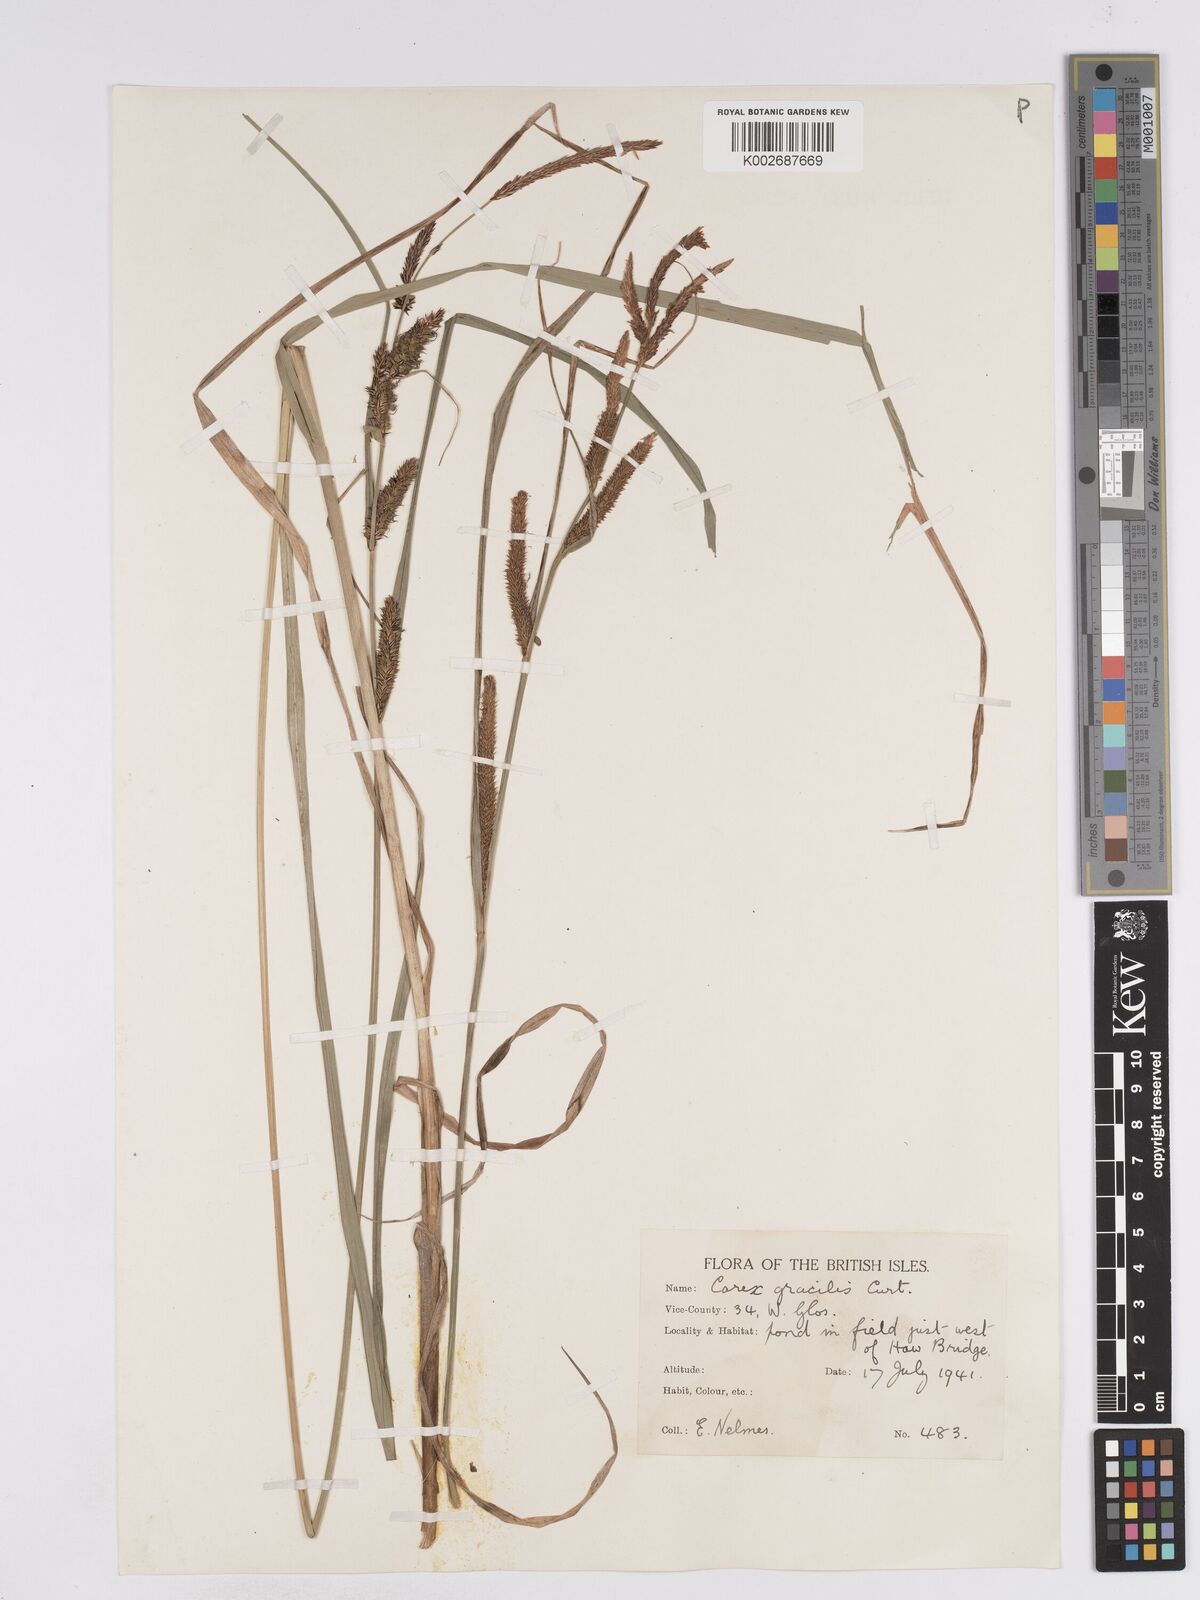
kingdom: Plantae
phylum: Tracheophyta
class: Liliopsida
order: Poales
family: Cyperaceae
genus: Carex
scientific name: Carex acuta
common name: Slender tufted-sedge
